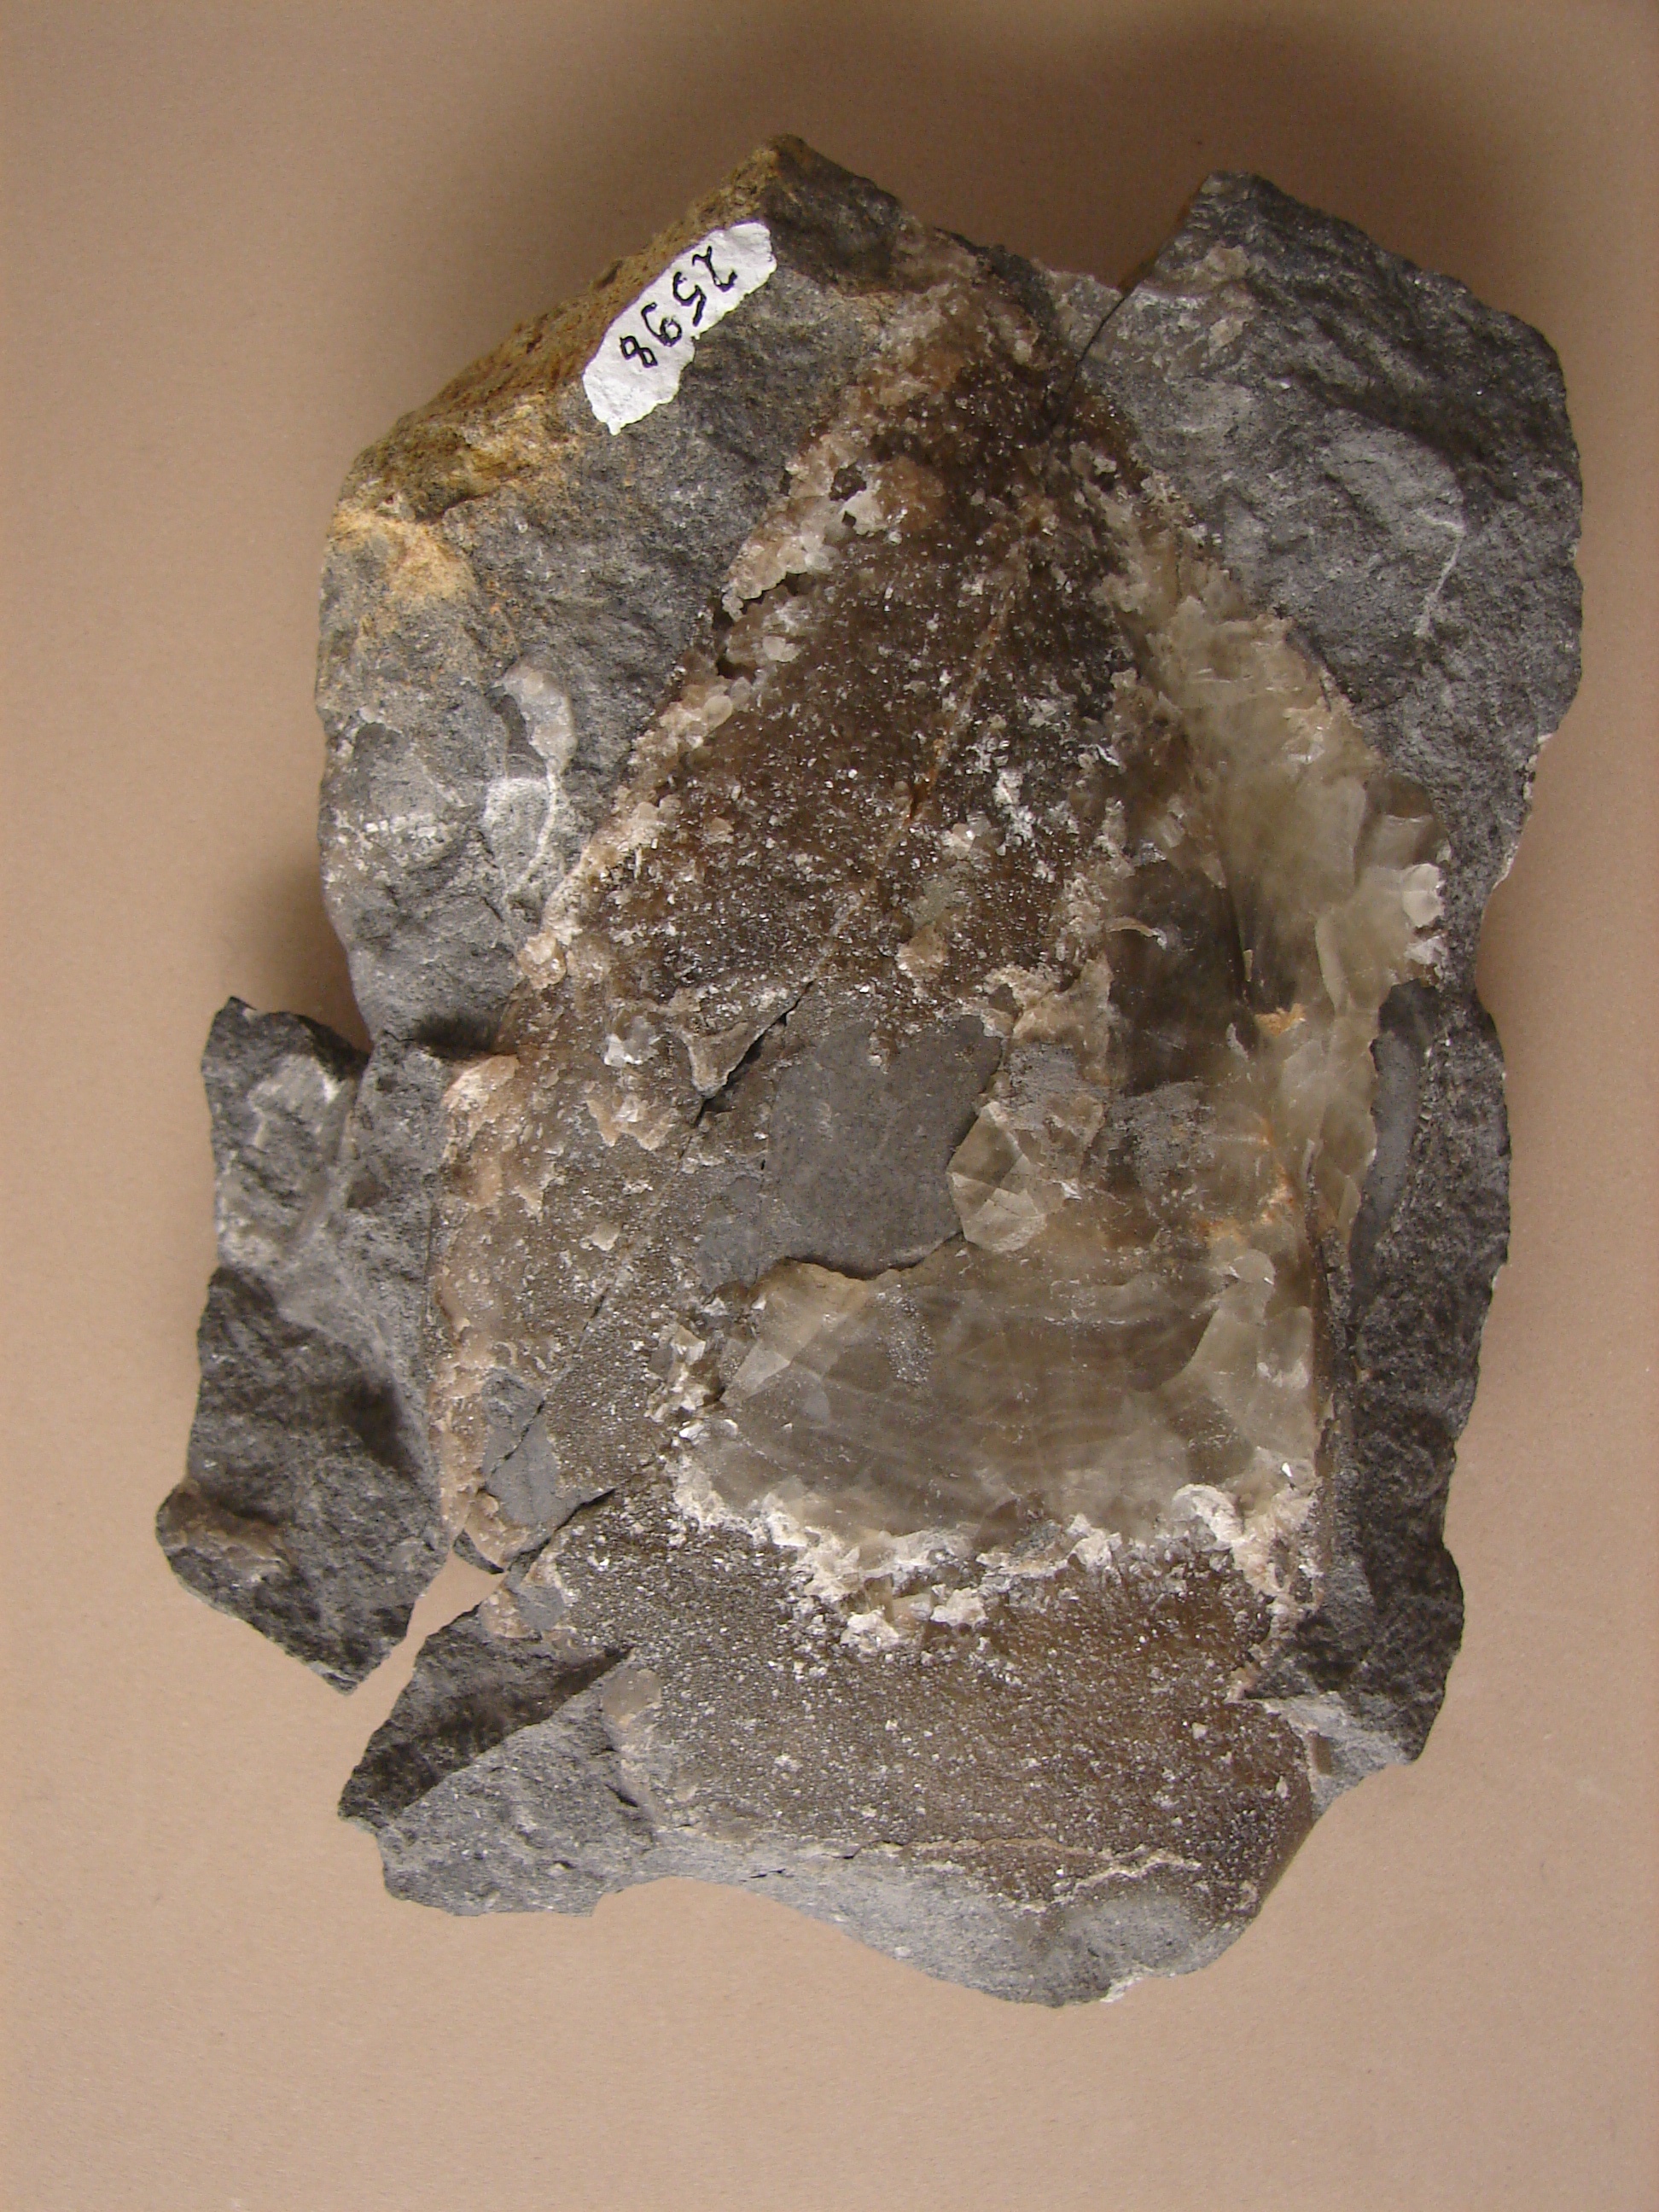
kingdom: Animalia
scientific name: Animalia
